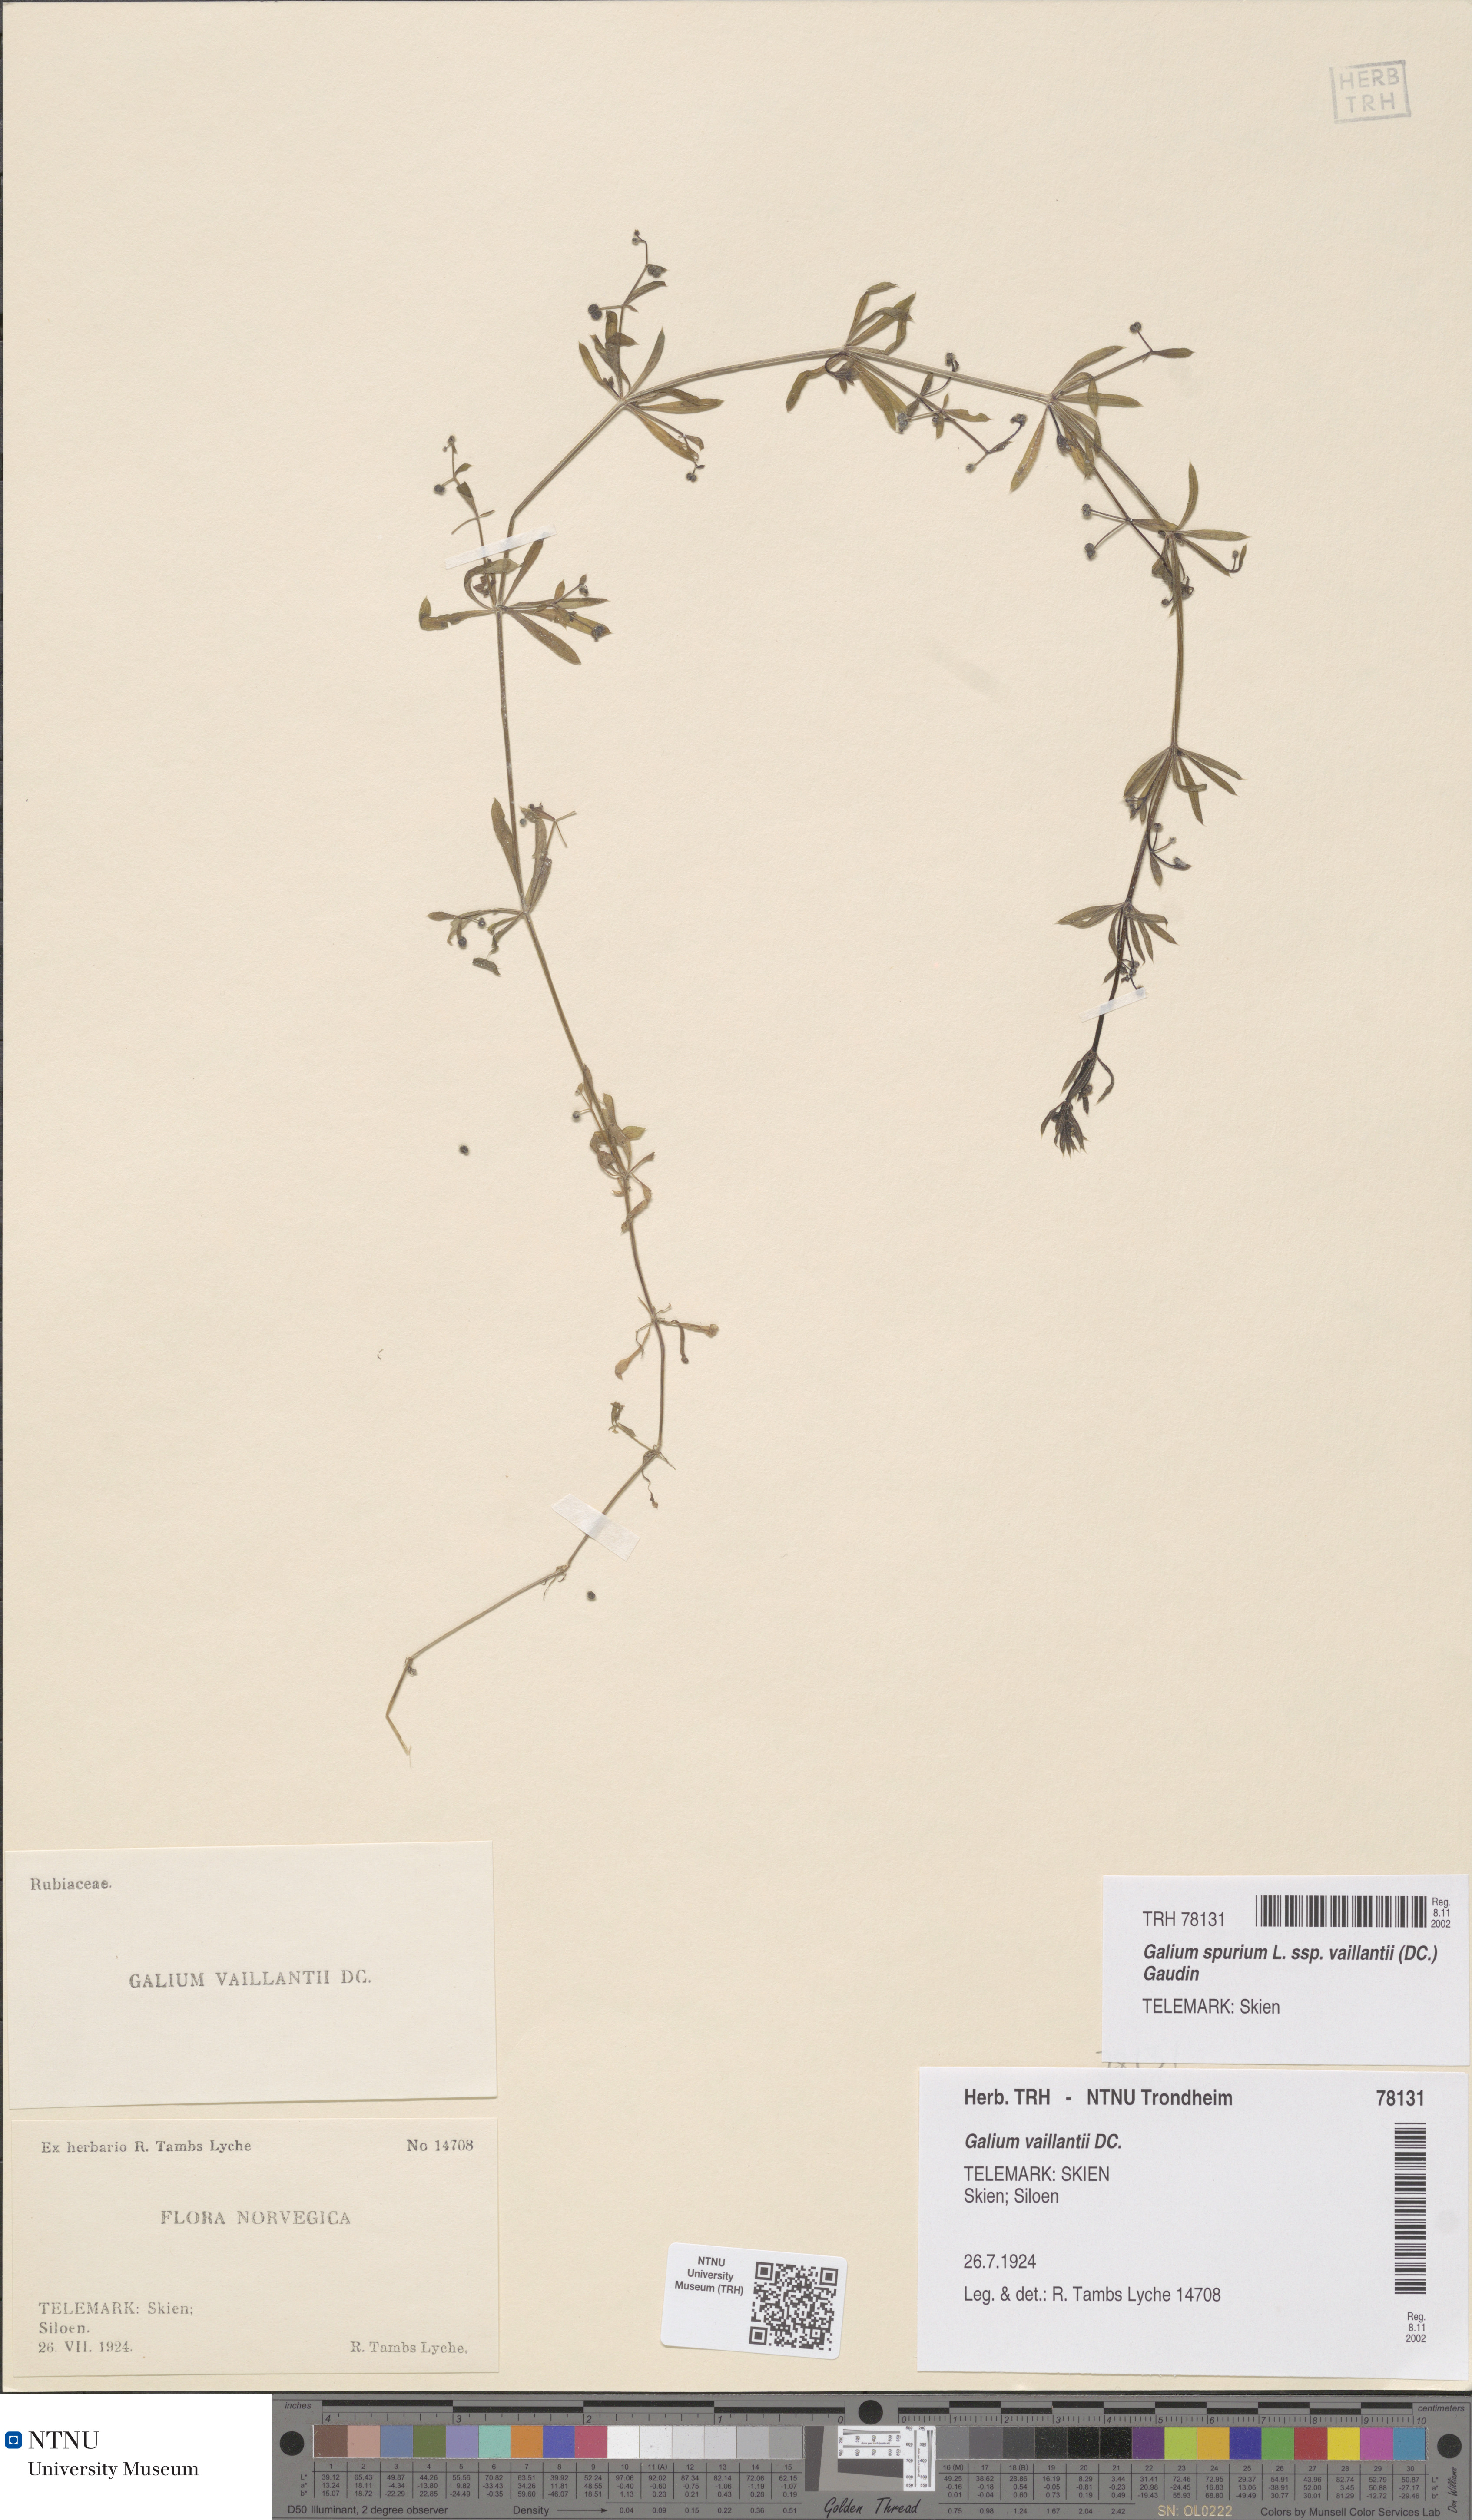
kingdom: Plantae
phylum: Tracheophyta
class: Magnoliopsida
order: Gentianales
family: Rubiaceae
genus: Galium
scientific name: Galium spurium
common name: False cleavers
